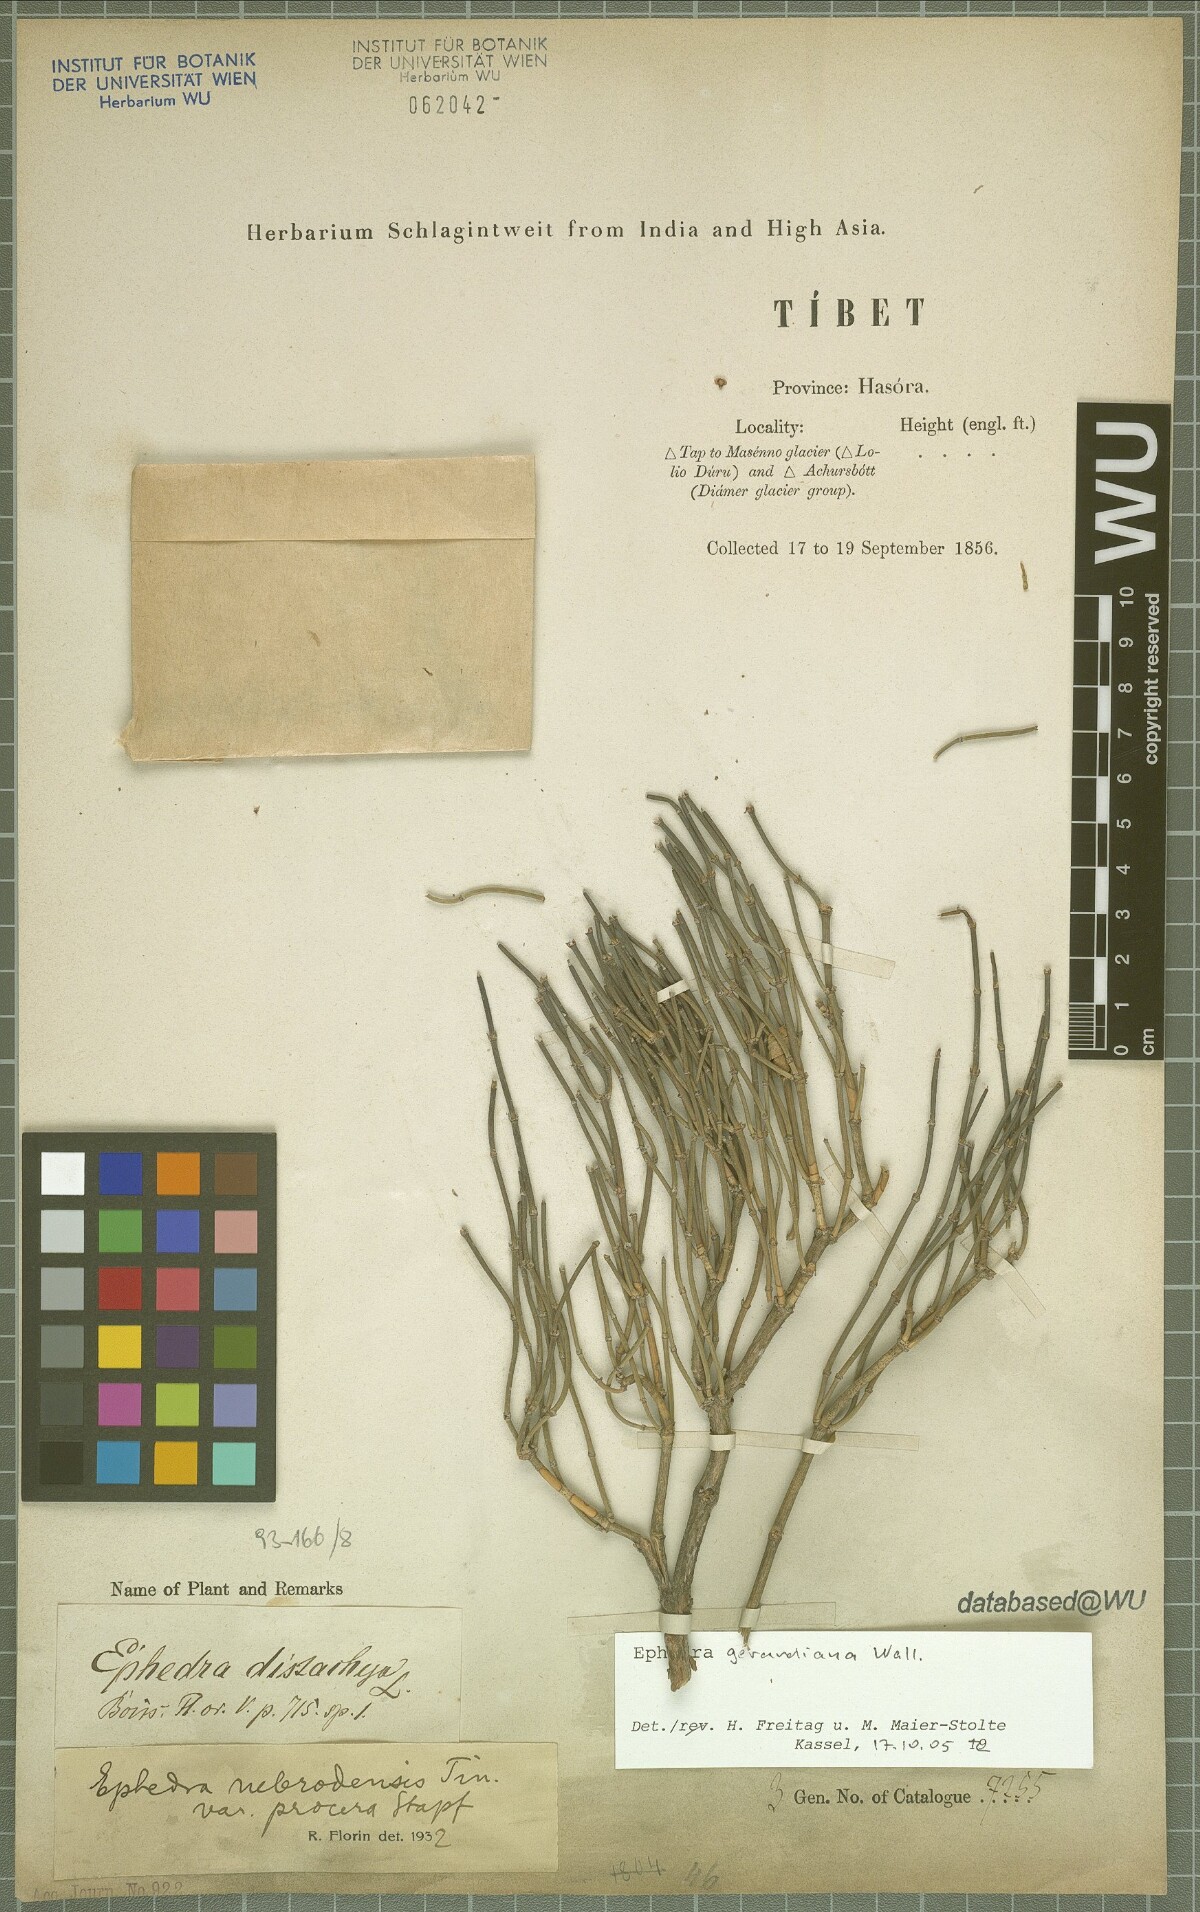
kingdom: Plantae
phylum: Tracheophyta
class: Gnetopsida
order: Ephedrales
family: Ephedraceae
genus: Ephedra
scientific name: Ephedra gerardiana
